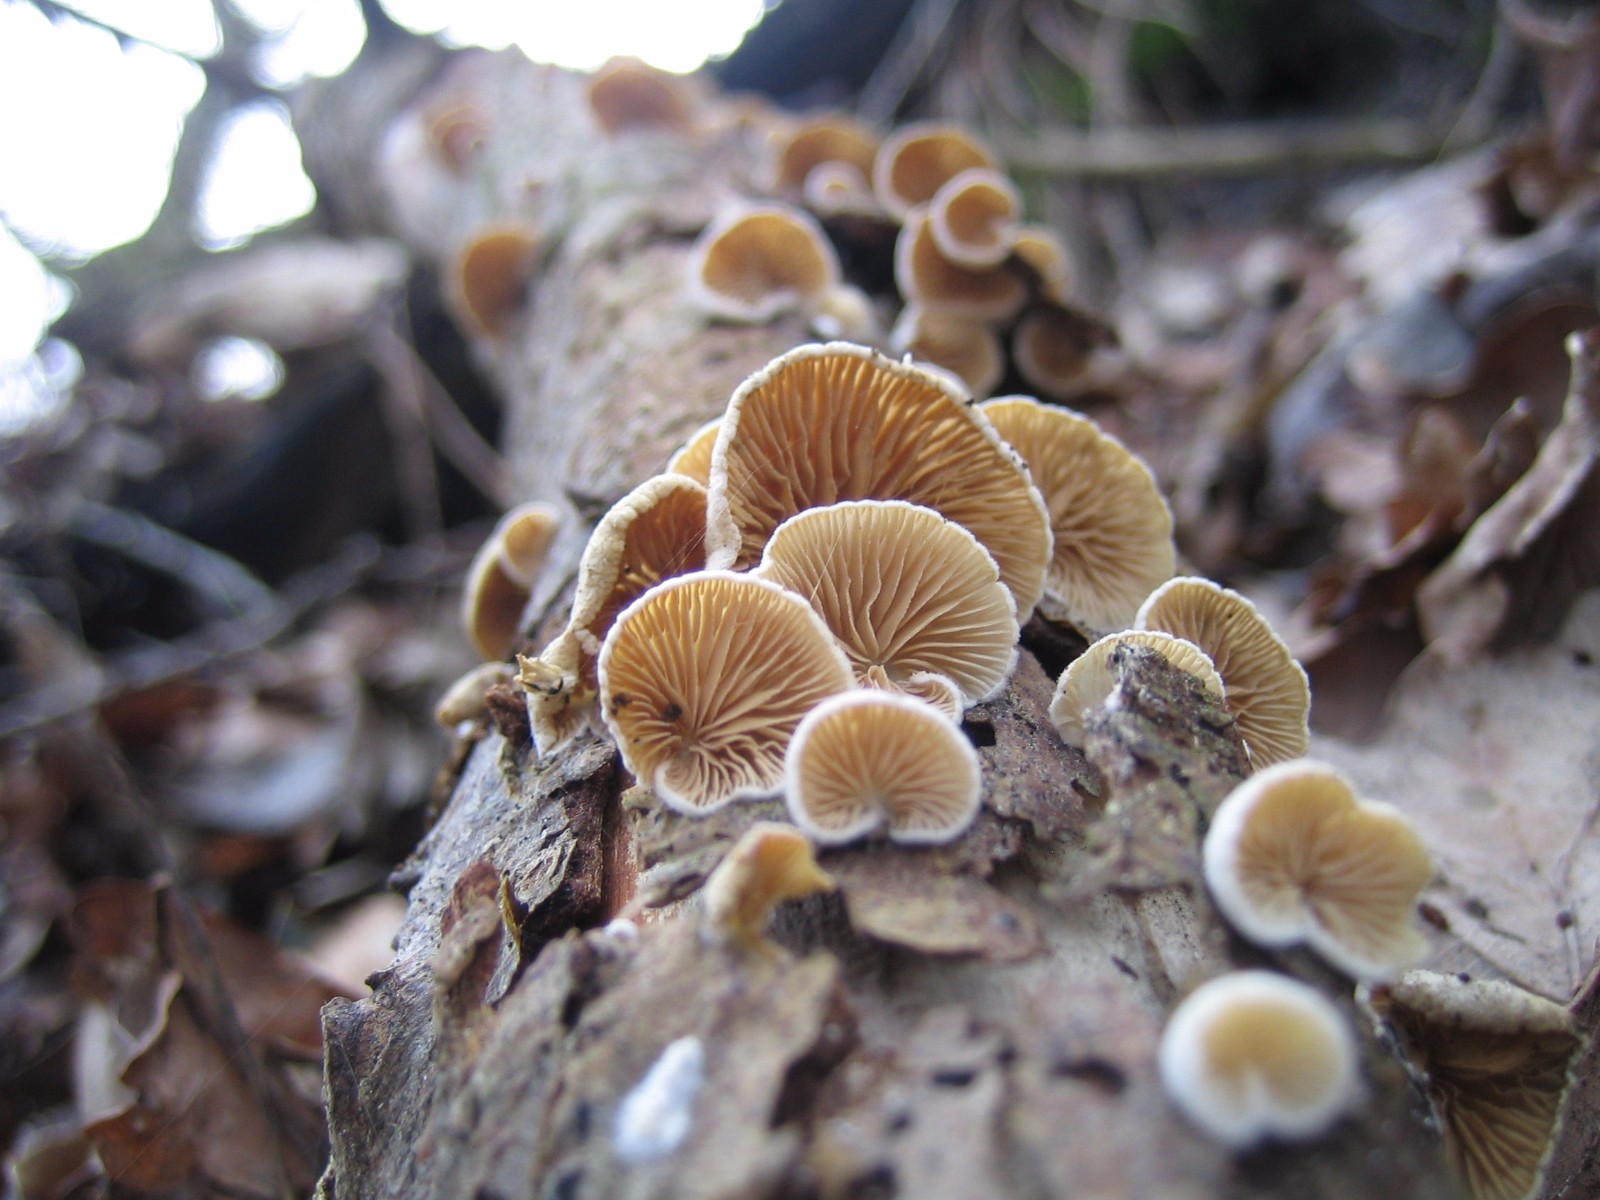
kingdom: Fungi
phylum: Basidiomycota
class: Agaricomycetes
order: Agaricales
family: Crepidotaceae
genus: Crepidotus
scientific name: Crepidotus
